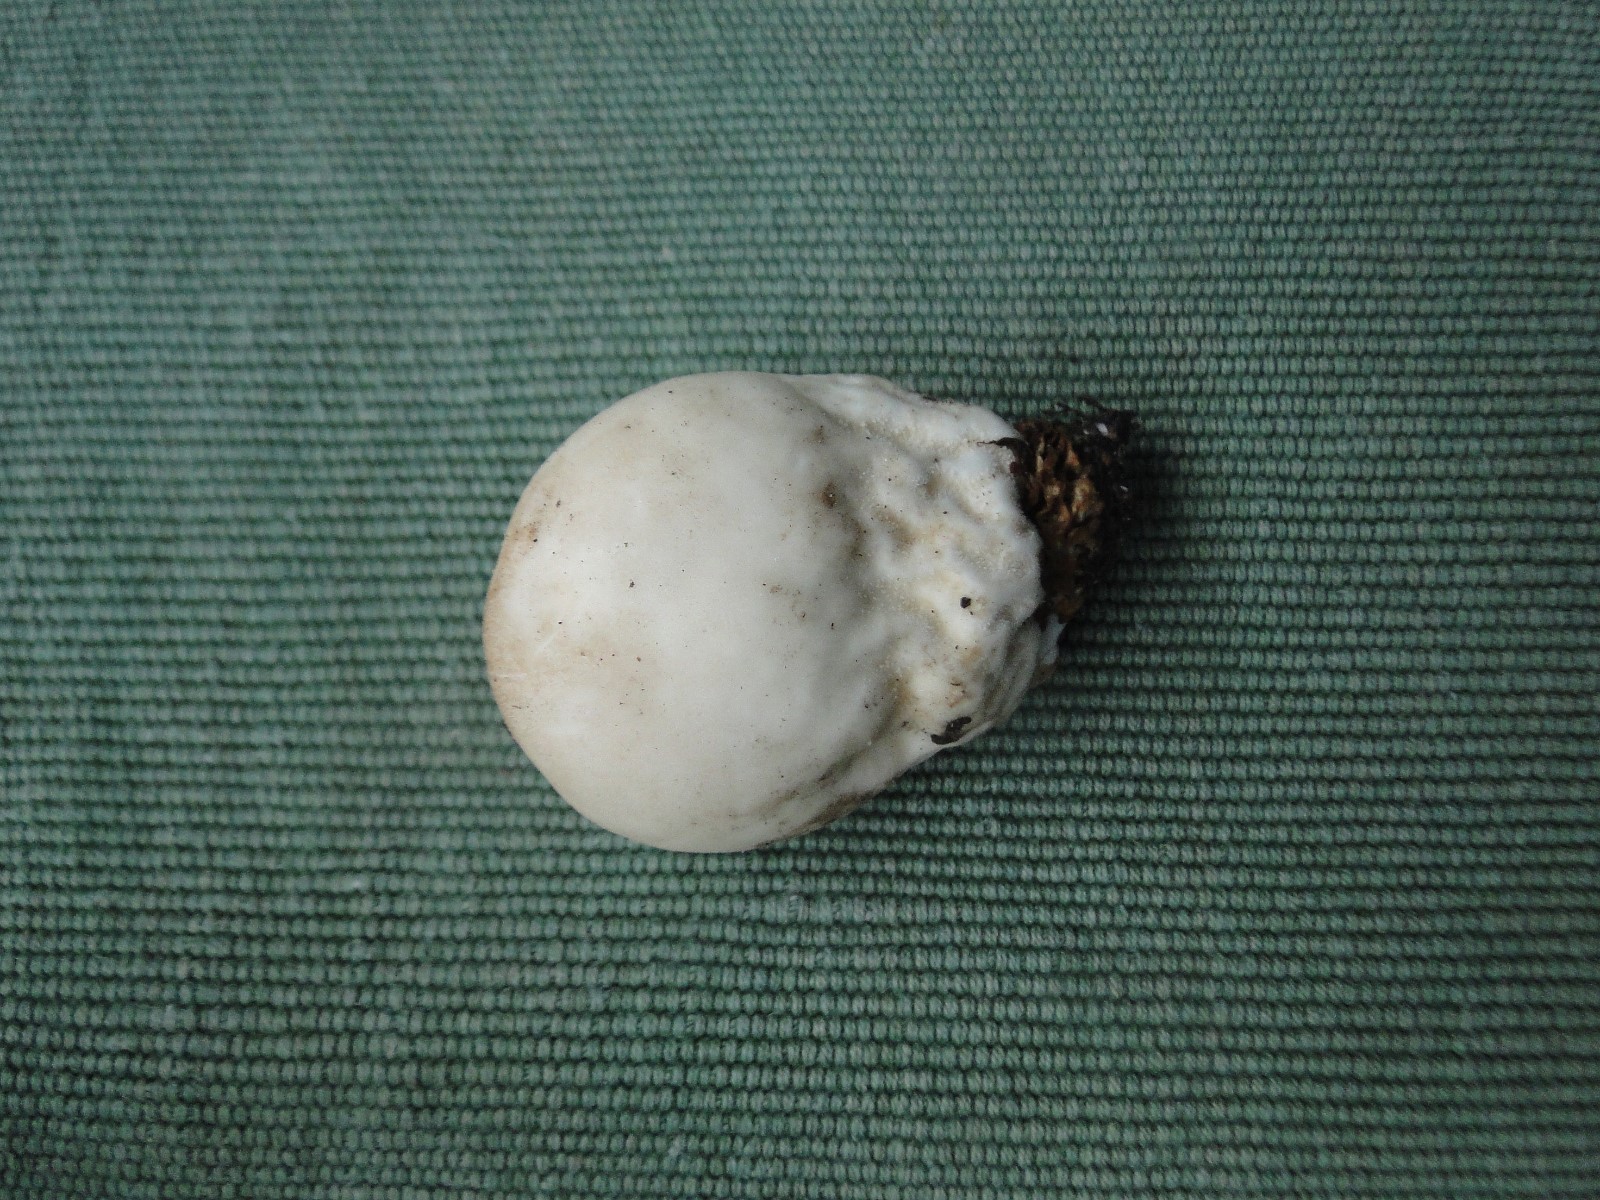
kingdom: Fungi
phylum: Basidiomycota
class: Agaricomycetes
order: Agaricales
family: Agaricaceae
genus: Lycoperdon
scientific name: Lycoperdon
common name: støvbold
